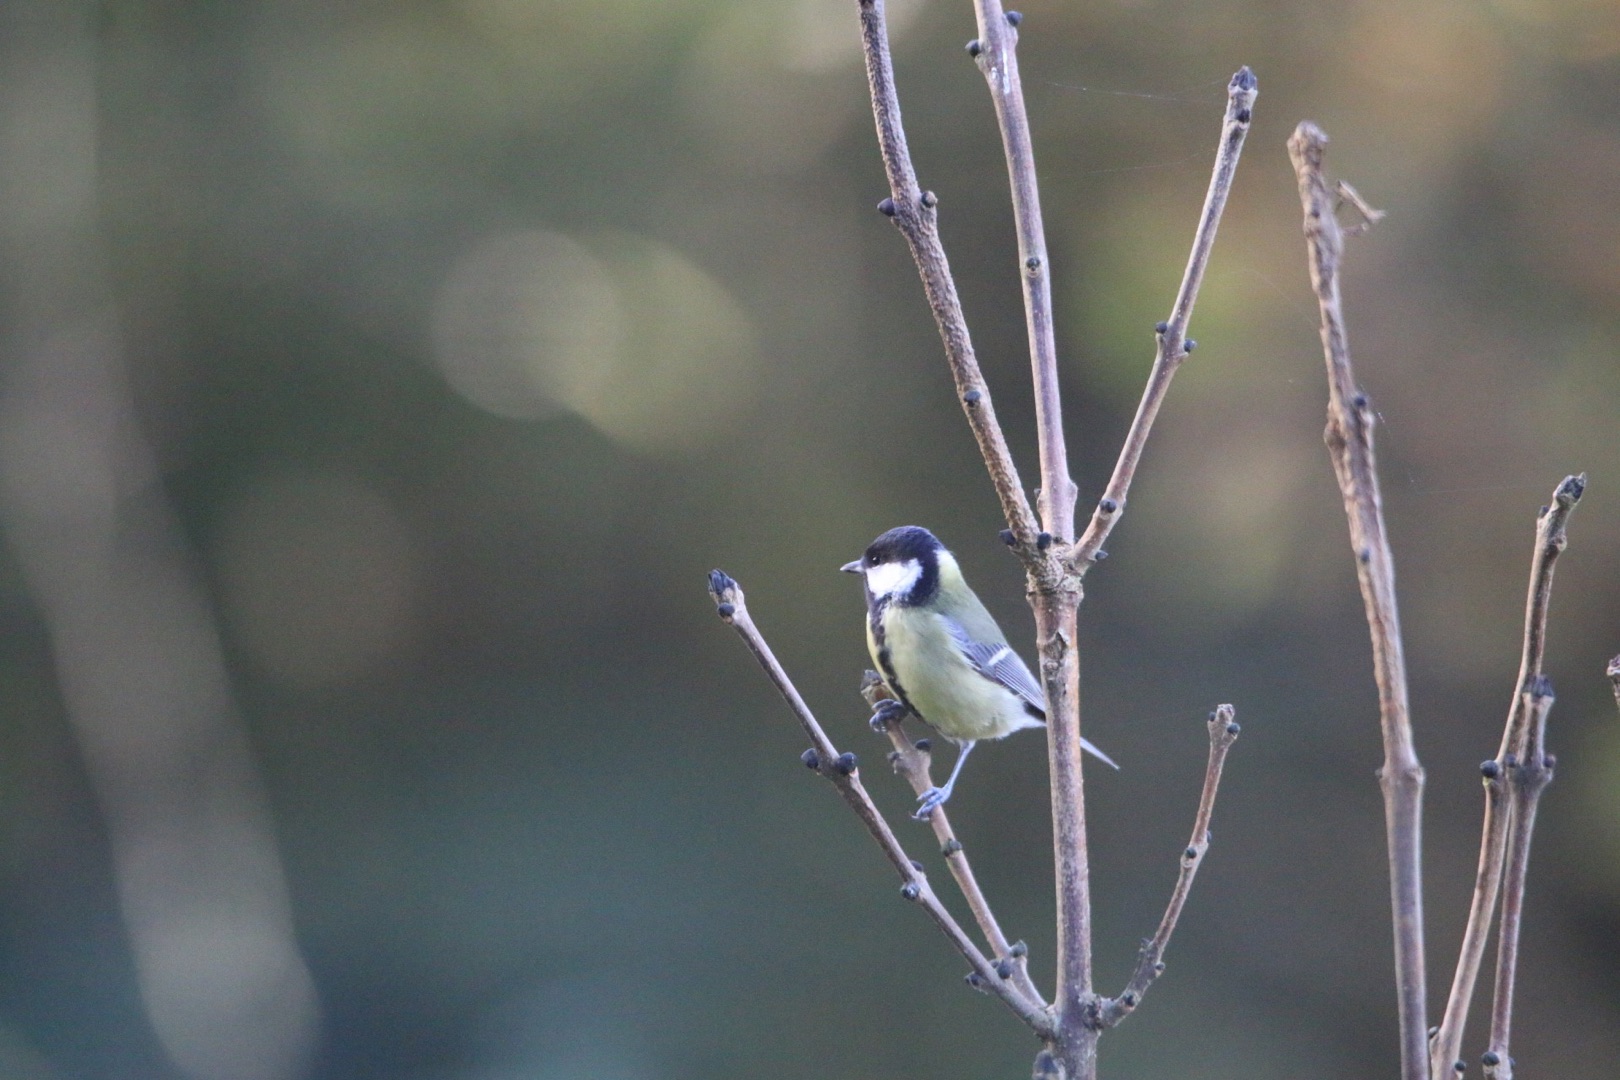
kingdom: Animalia
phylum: Chordata
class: Aves
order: Passeriformes
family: Paridae
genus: Parus
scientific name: Parus major
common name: Musvit
